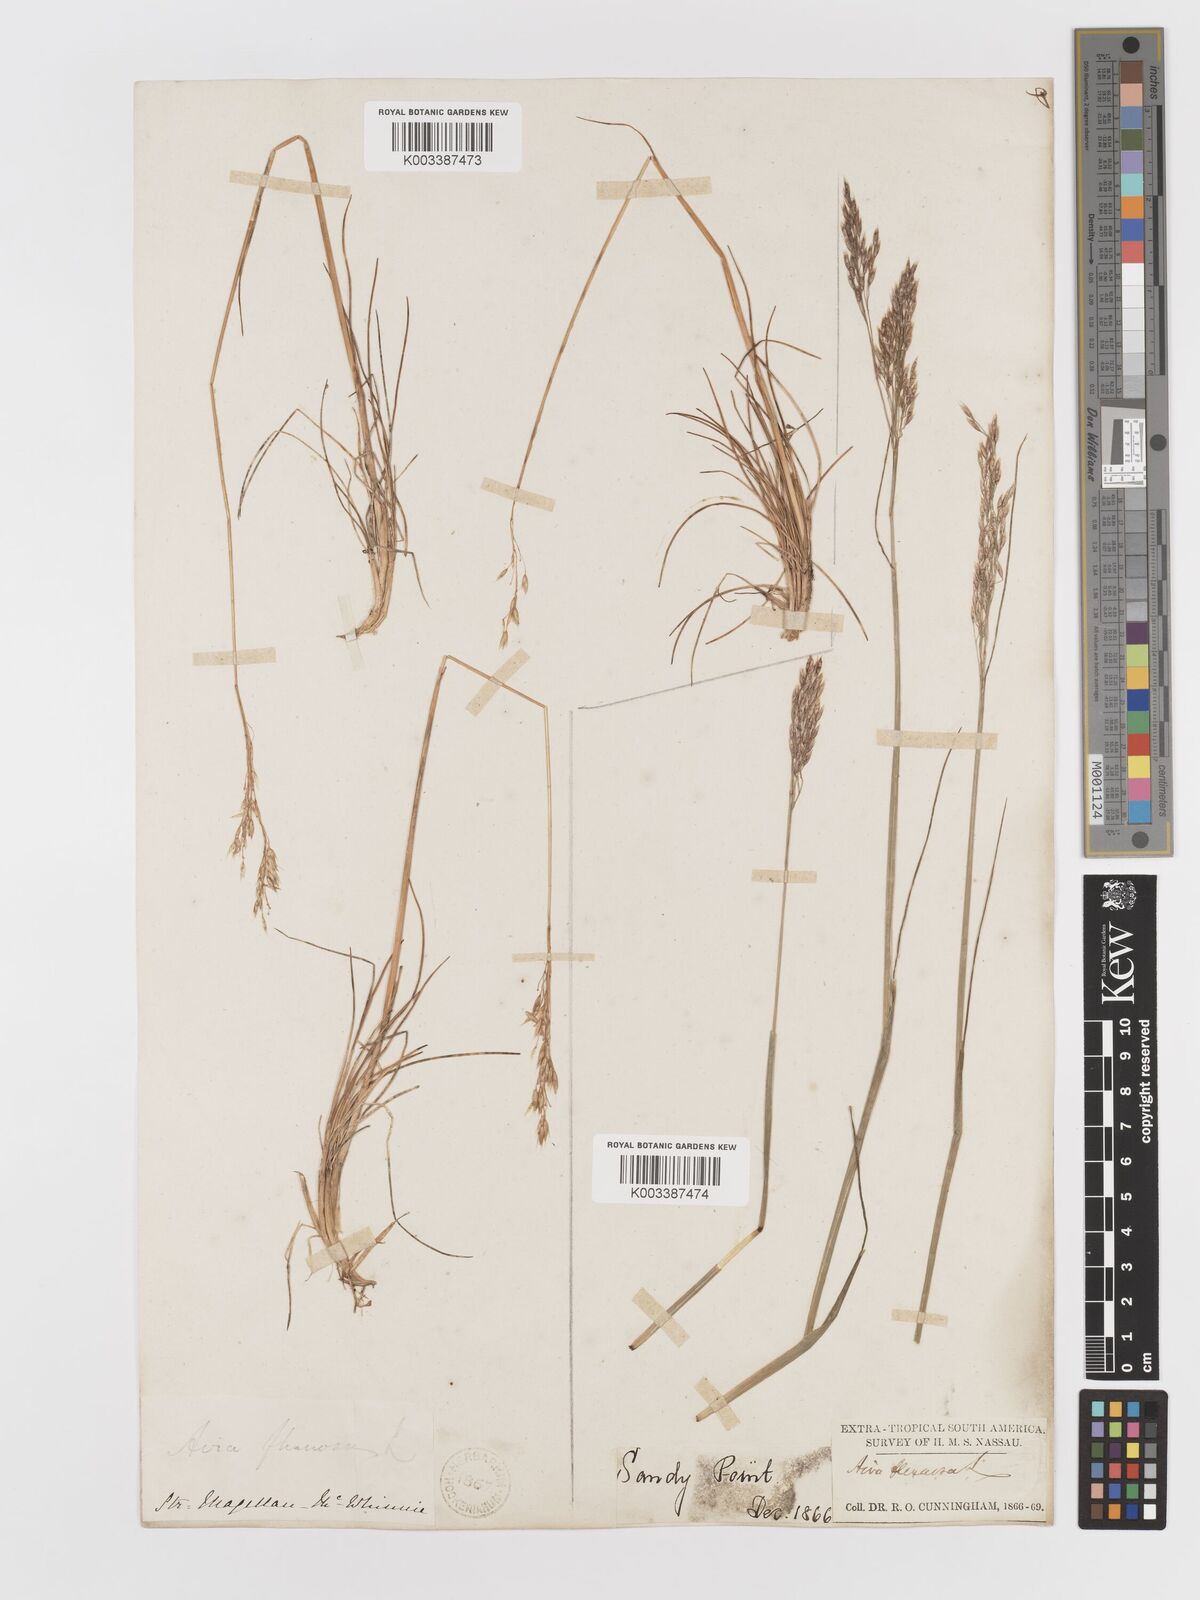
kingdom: Plantae
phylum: Tracheophyta
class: Liliopsida
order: Poales
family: Poaceae
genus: Avenella
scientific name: Avenella flexuosa
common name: Wavy hairgrass
